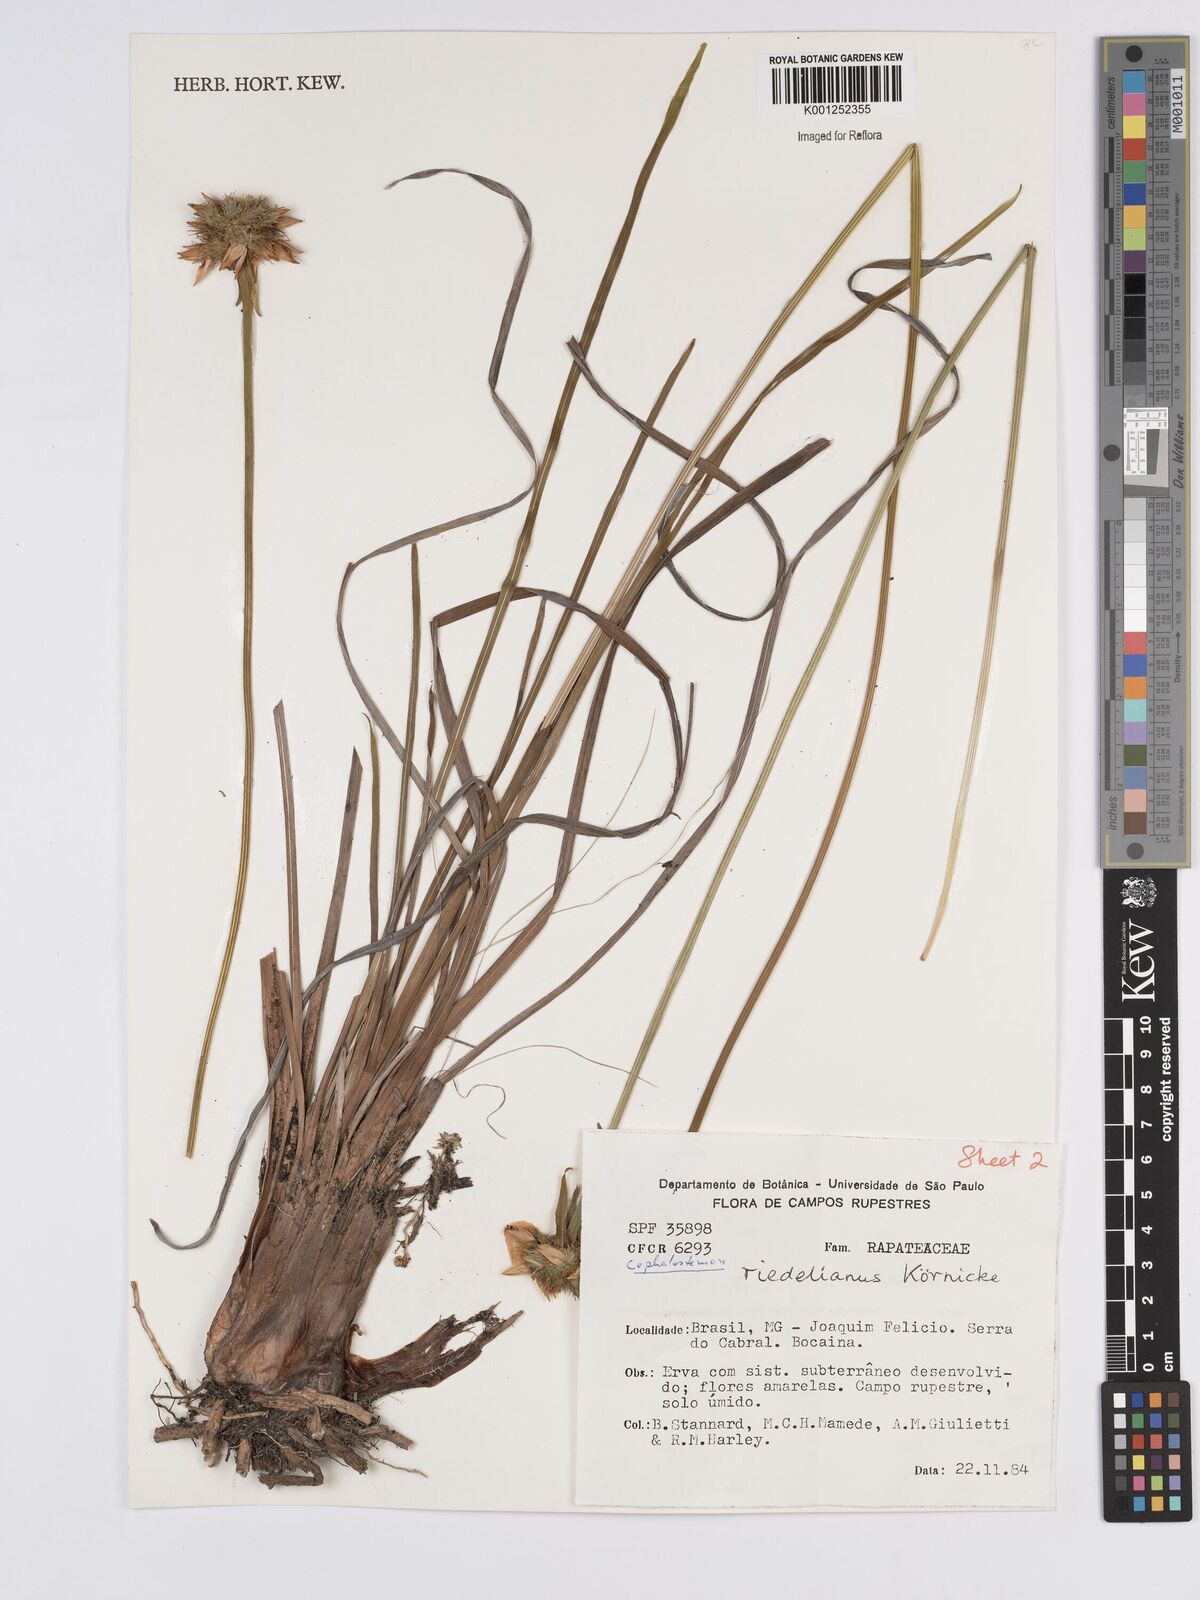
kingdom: Plantae
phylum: Tracheophyta
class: Liliopsida
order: Poales
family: Rapateaceae
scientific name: Rapateaceae
